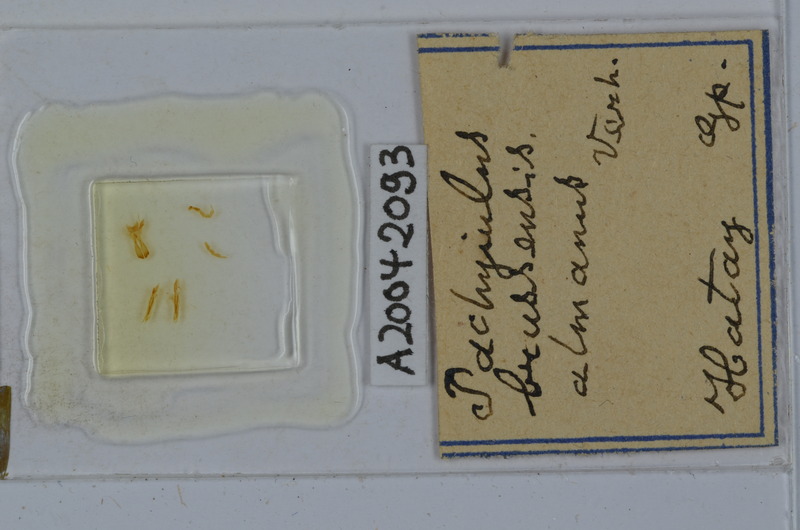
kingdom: Animalia
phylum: Arthropoda
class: Diplopoda
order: Julida
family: Julidae
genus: Pachyiulus
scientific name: Pachyiulus brussensis
